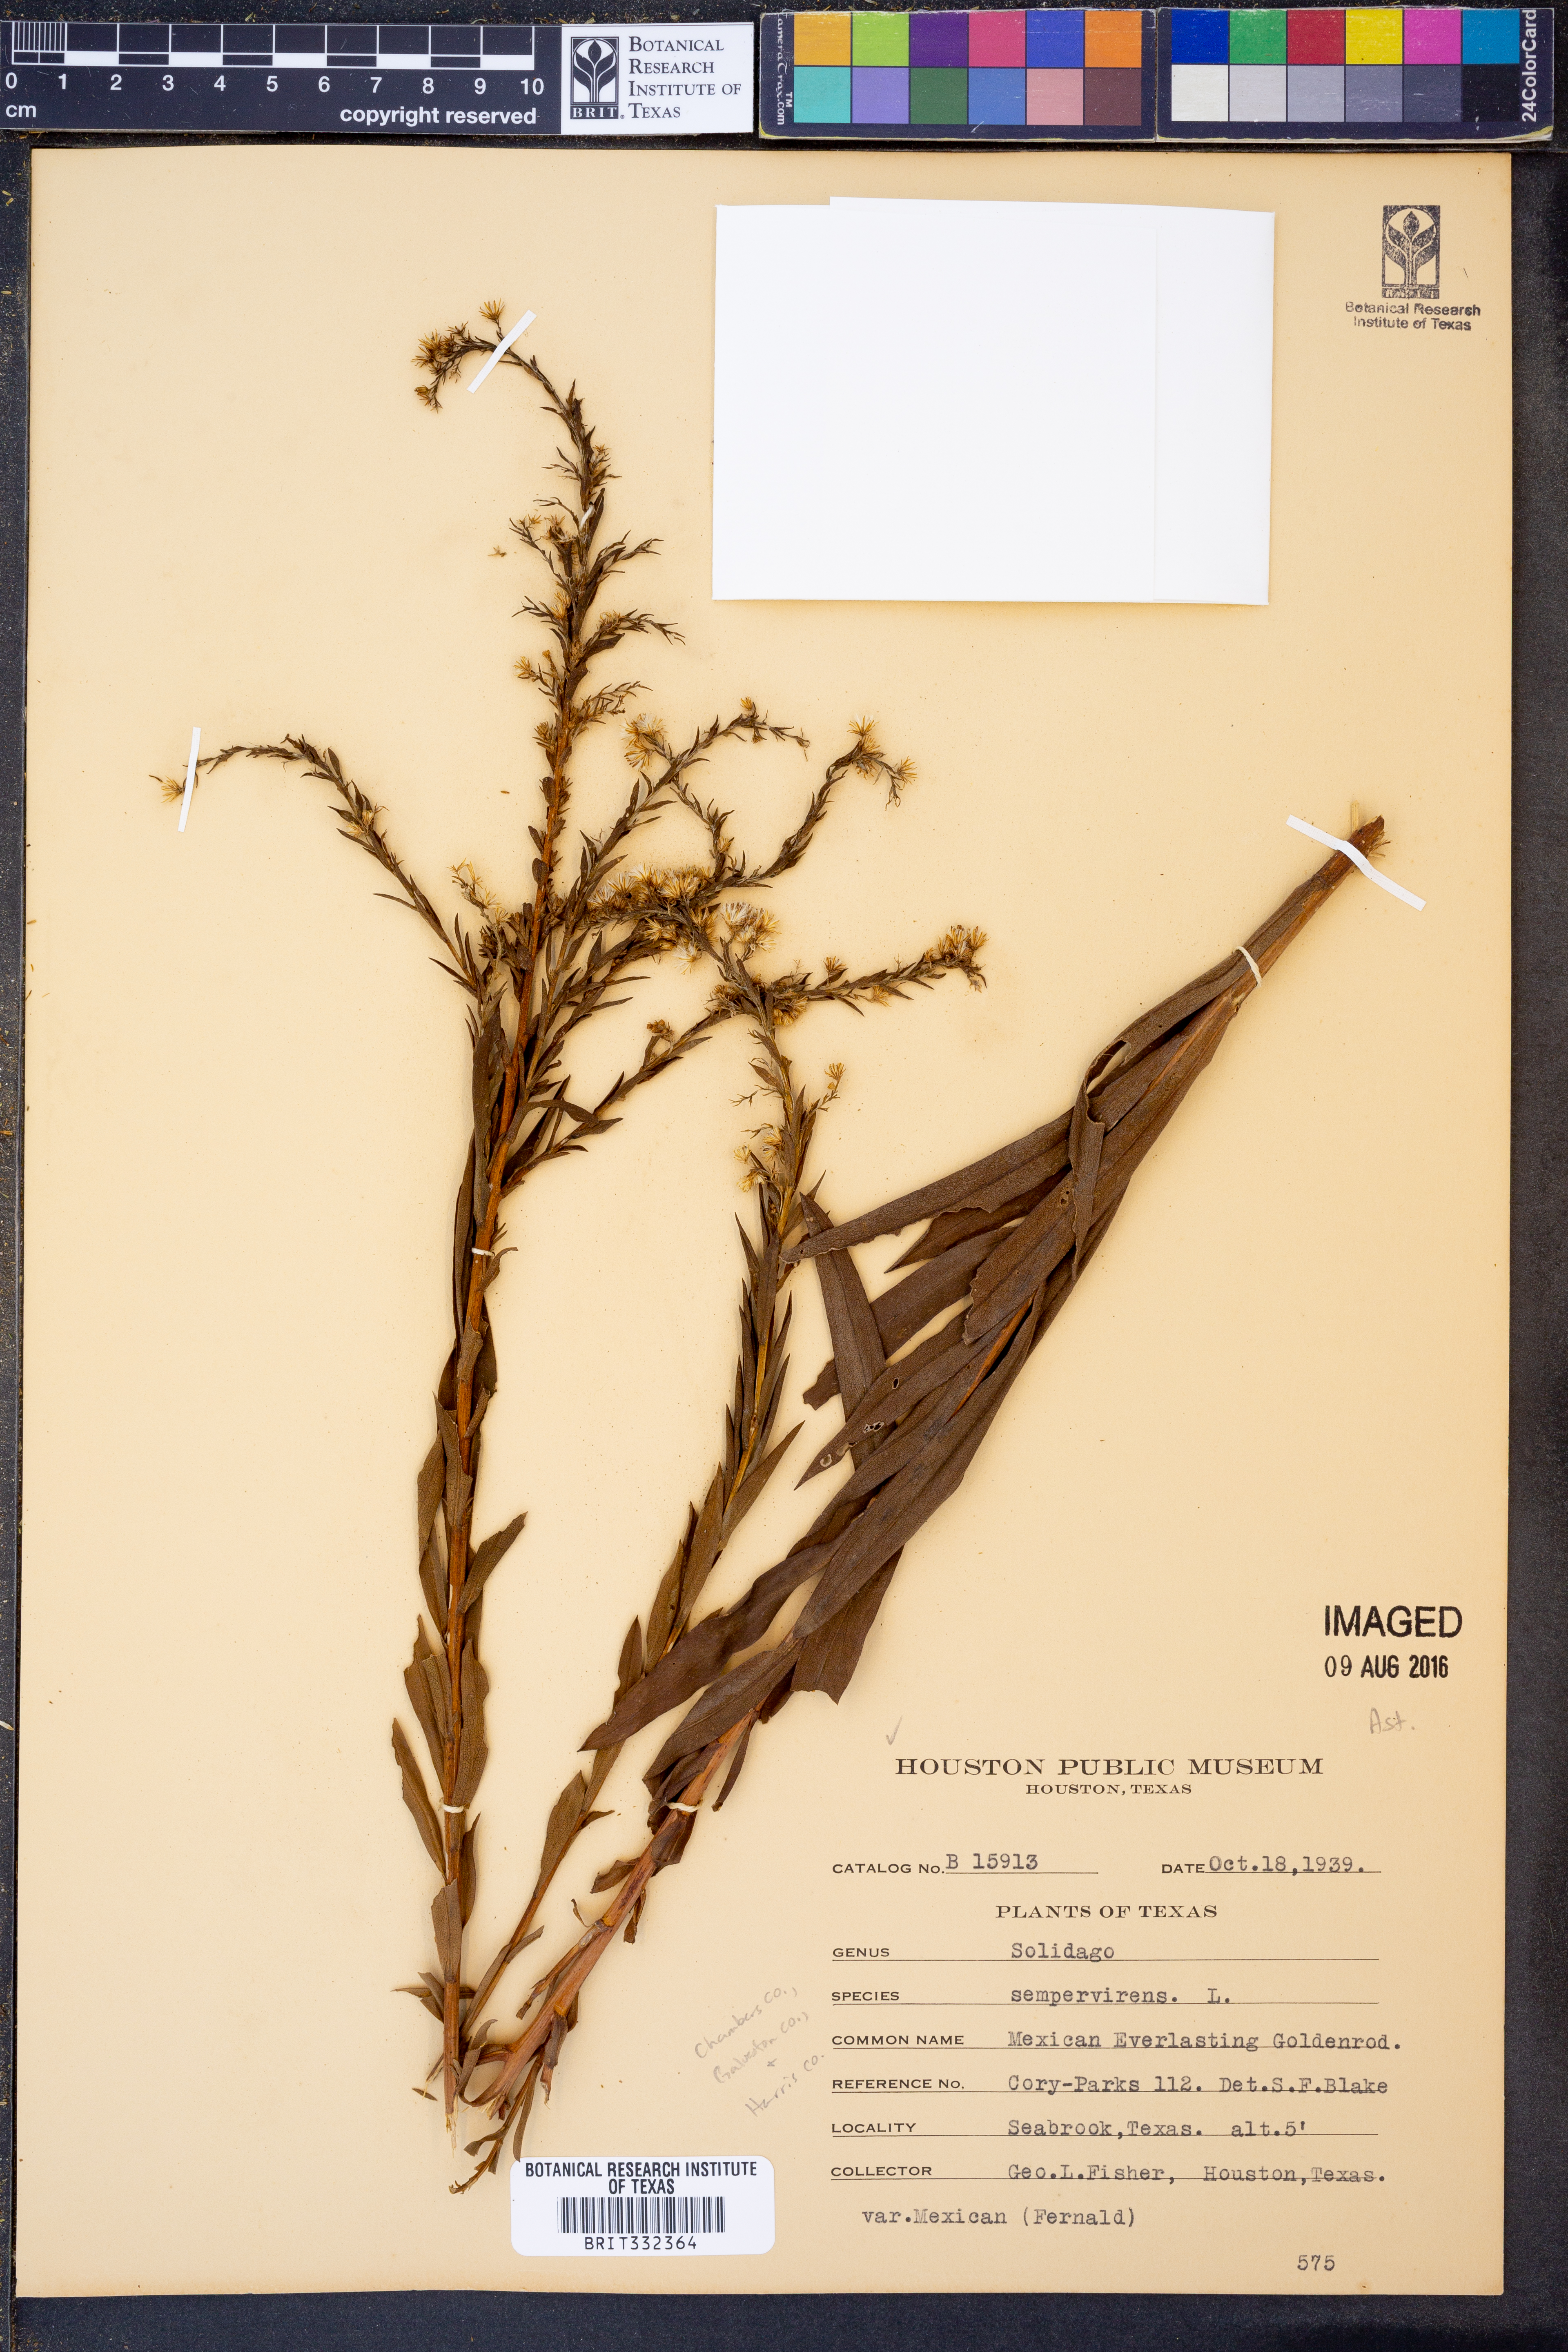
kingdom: Plantae
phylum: Tracheophyta
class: Magnoliopsida
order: Asterales
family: Asteraceae
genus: Solidago
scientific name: Solidago sempervirens
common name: Salt-marsh goldenrod
